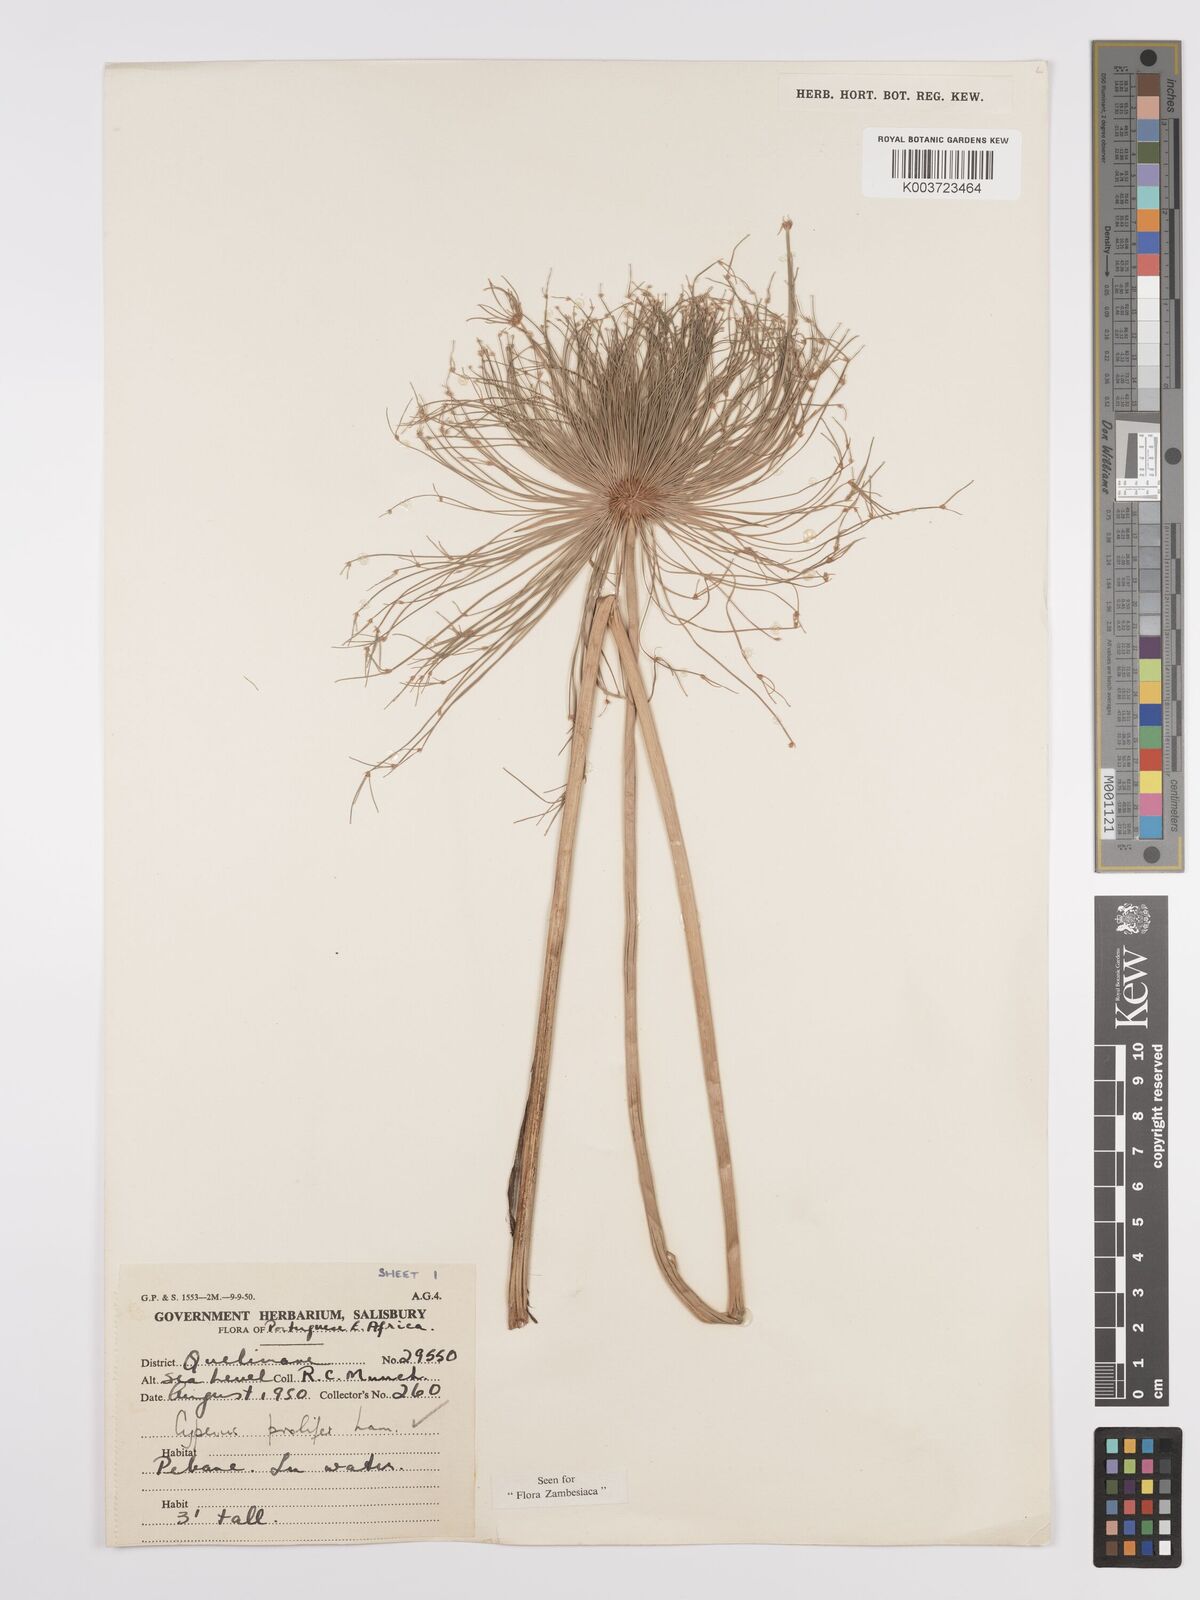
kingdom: Plantae
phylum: Tracheophyta
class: Liliopsida
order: Poales
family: Cyperaceae
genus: Cyperus
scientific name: Cyperus prolifer
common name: Miniature flatsedge
